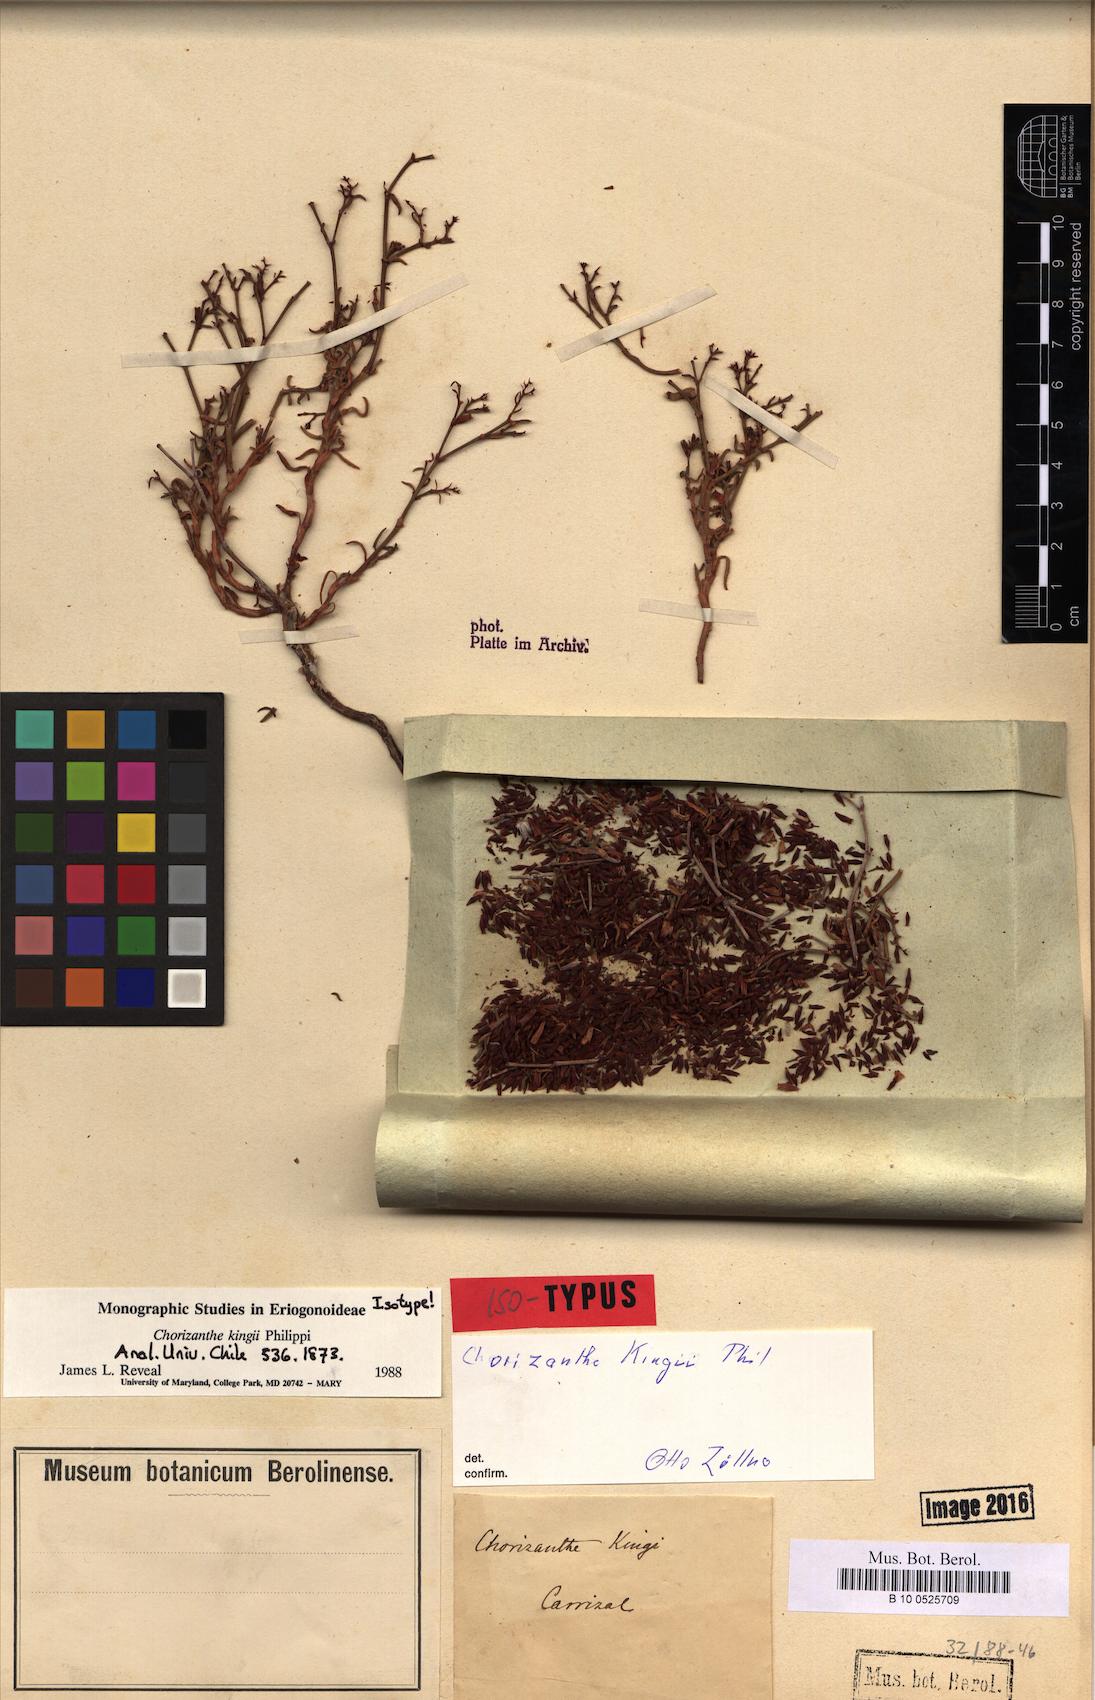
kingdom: Plantae
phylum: Tracheophyta
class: Magnoliopsida
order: Caryophyllales
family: Polygonaceae
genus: Chorizanthe
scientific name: Chorizanthe kingii
